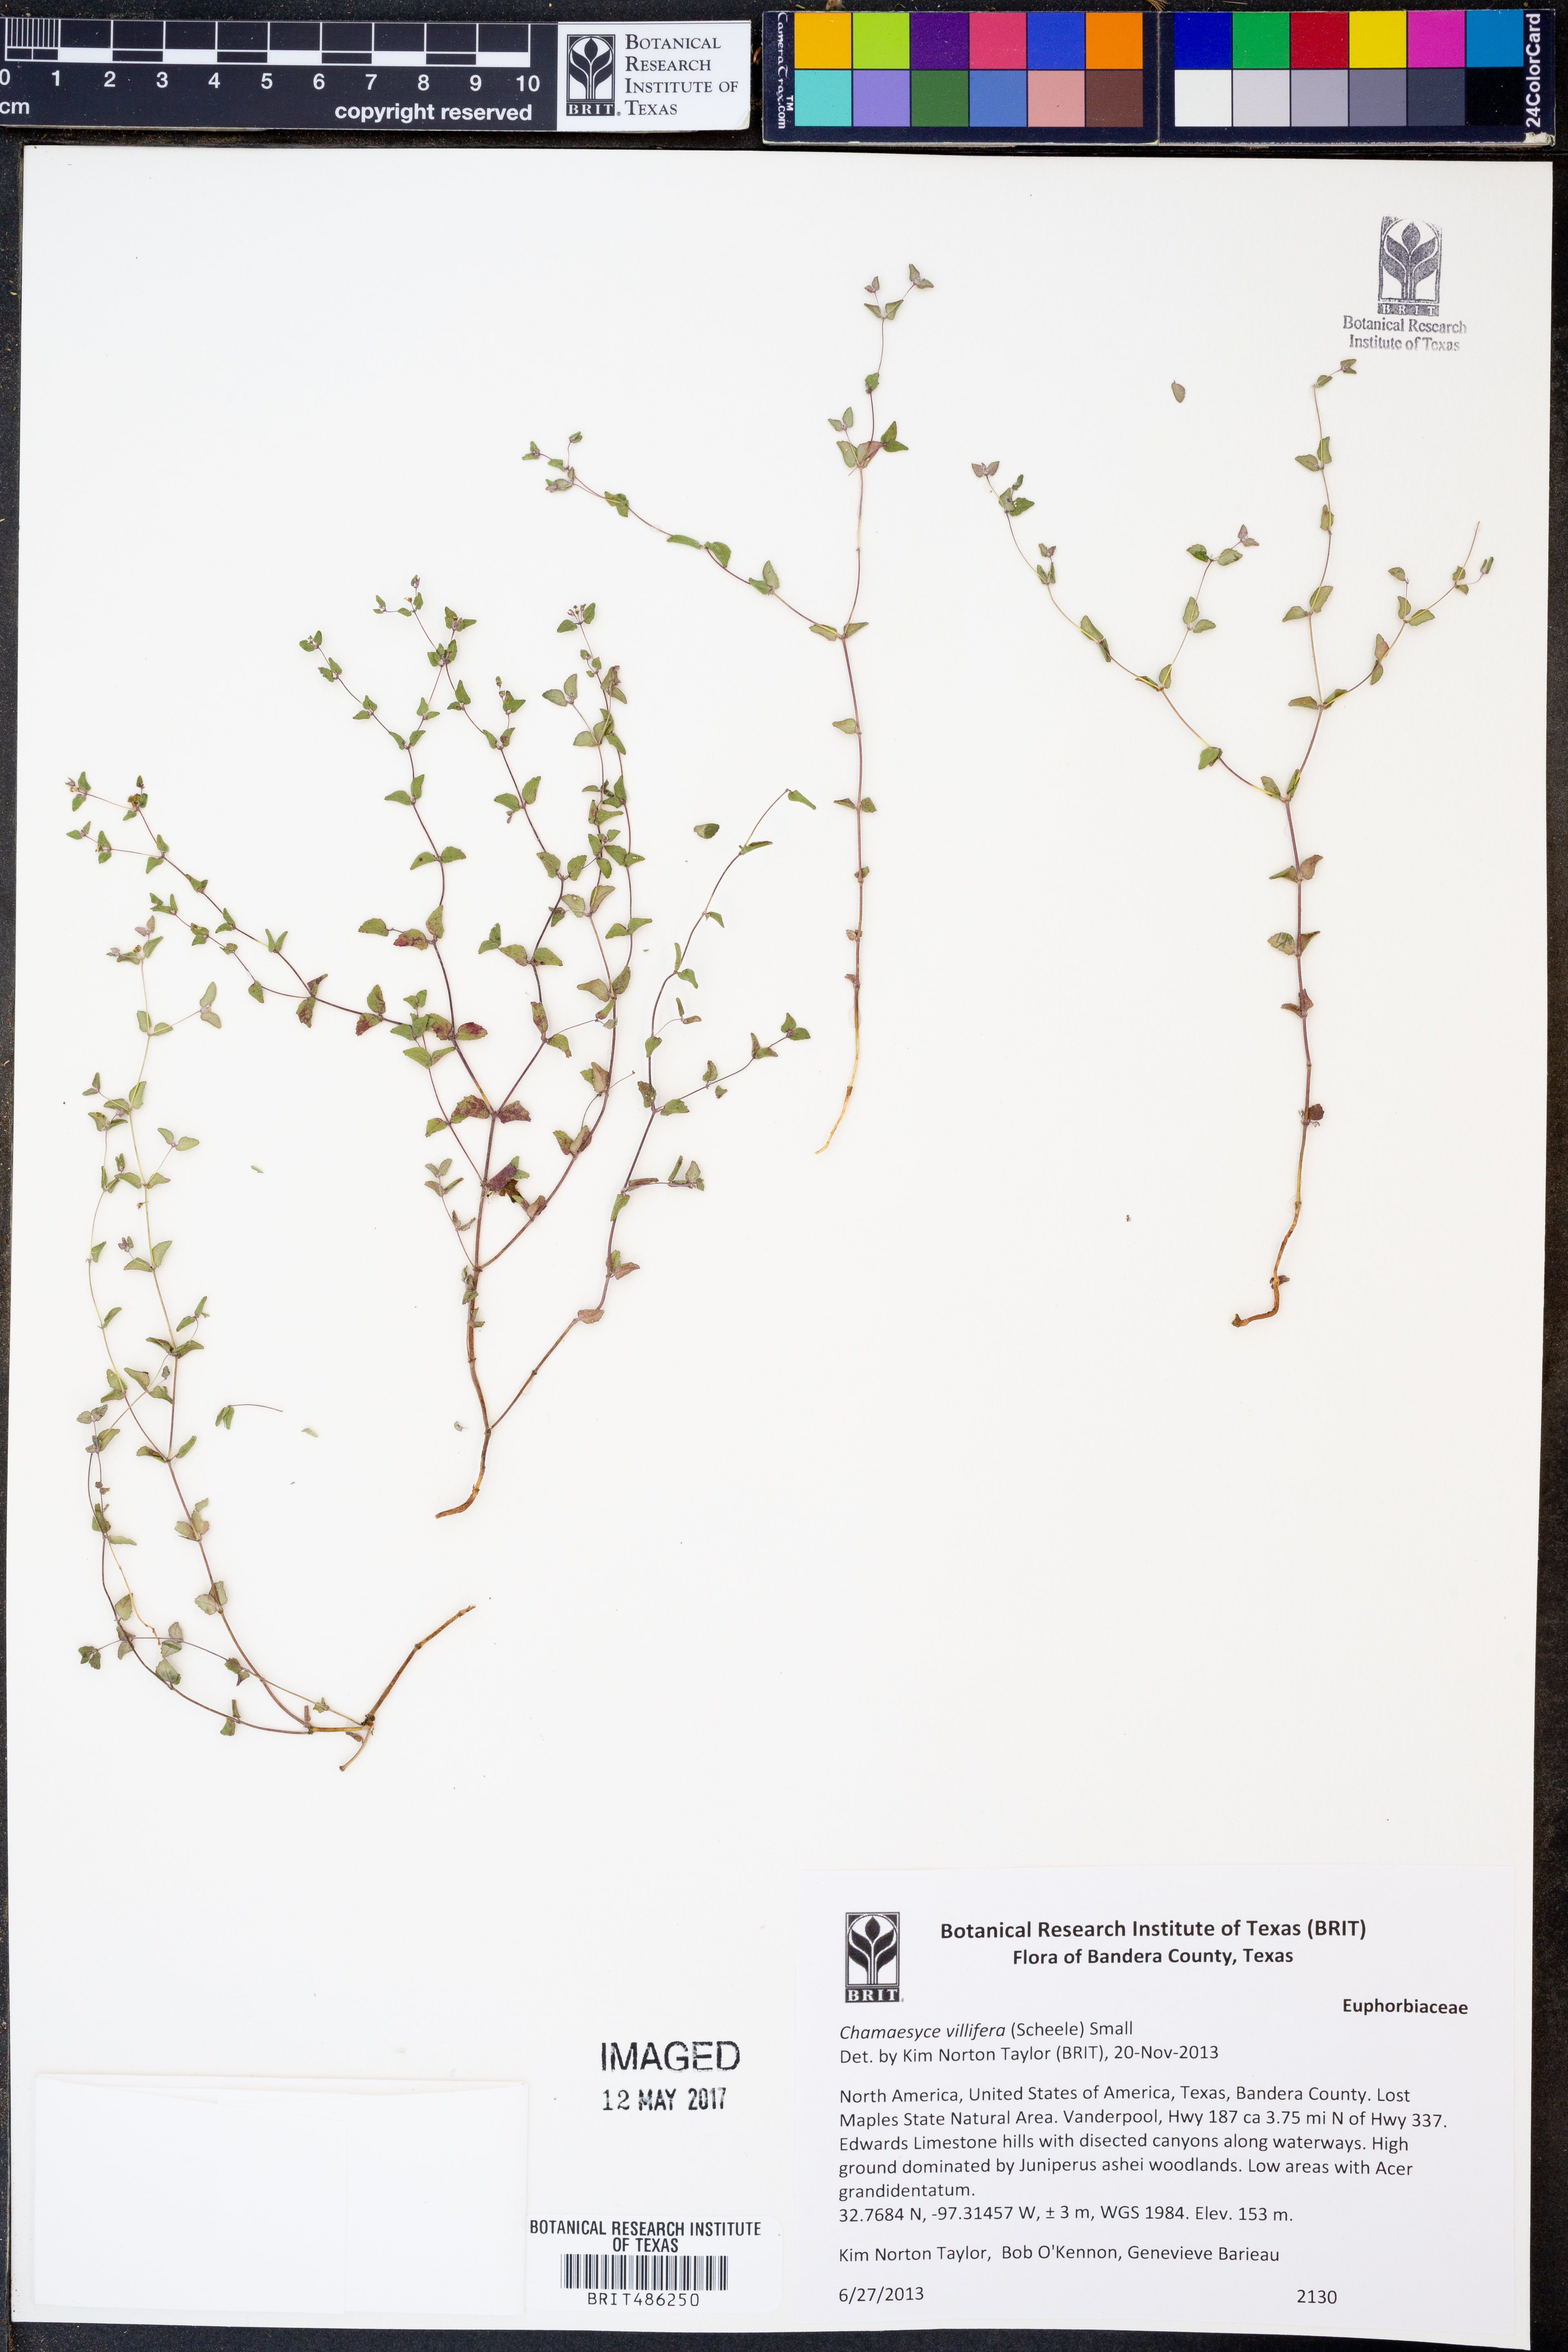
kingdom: Plantae
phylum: Tracheophyta
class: Magnoliopsida
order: Malpighiales
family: Euphorbiaceae
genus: Euphorbia
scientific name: Euphorbia villifera
